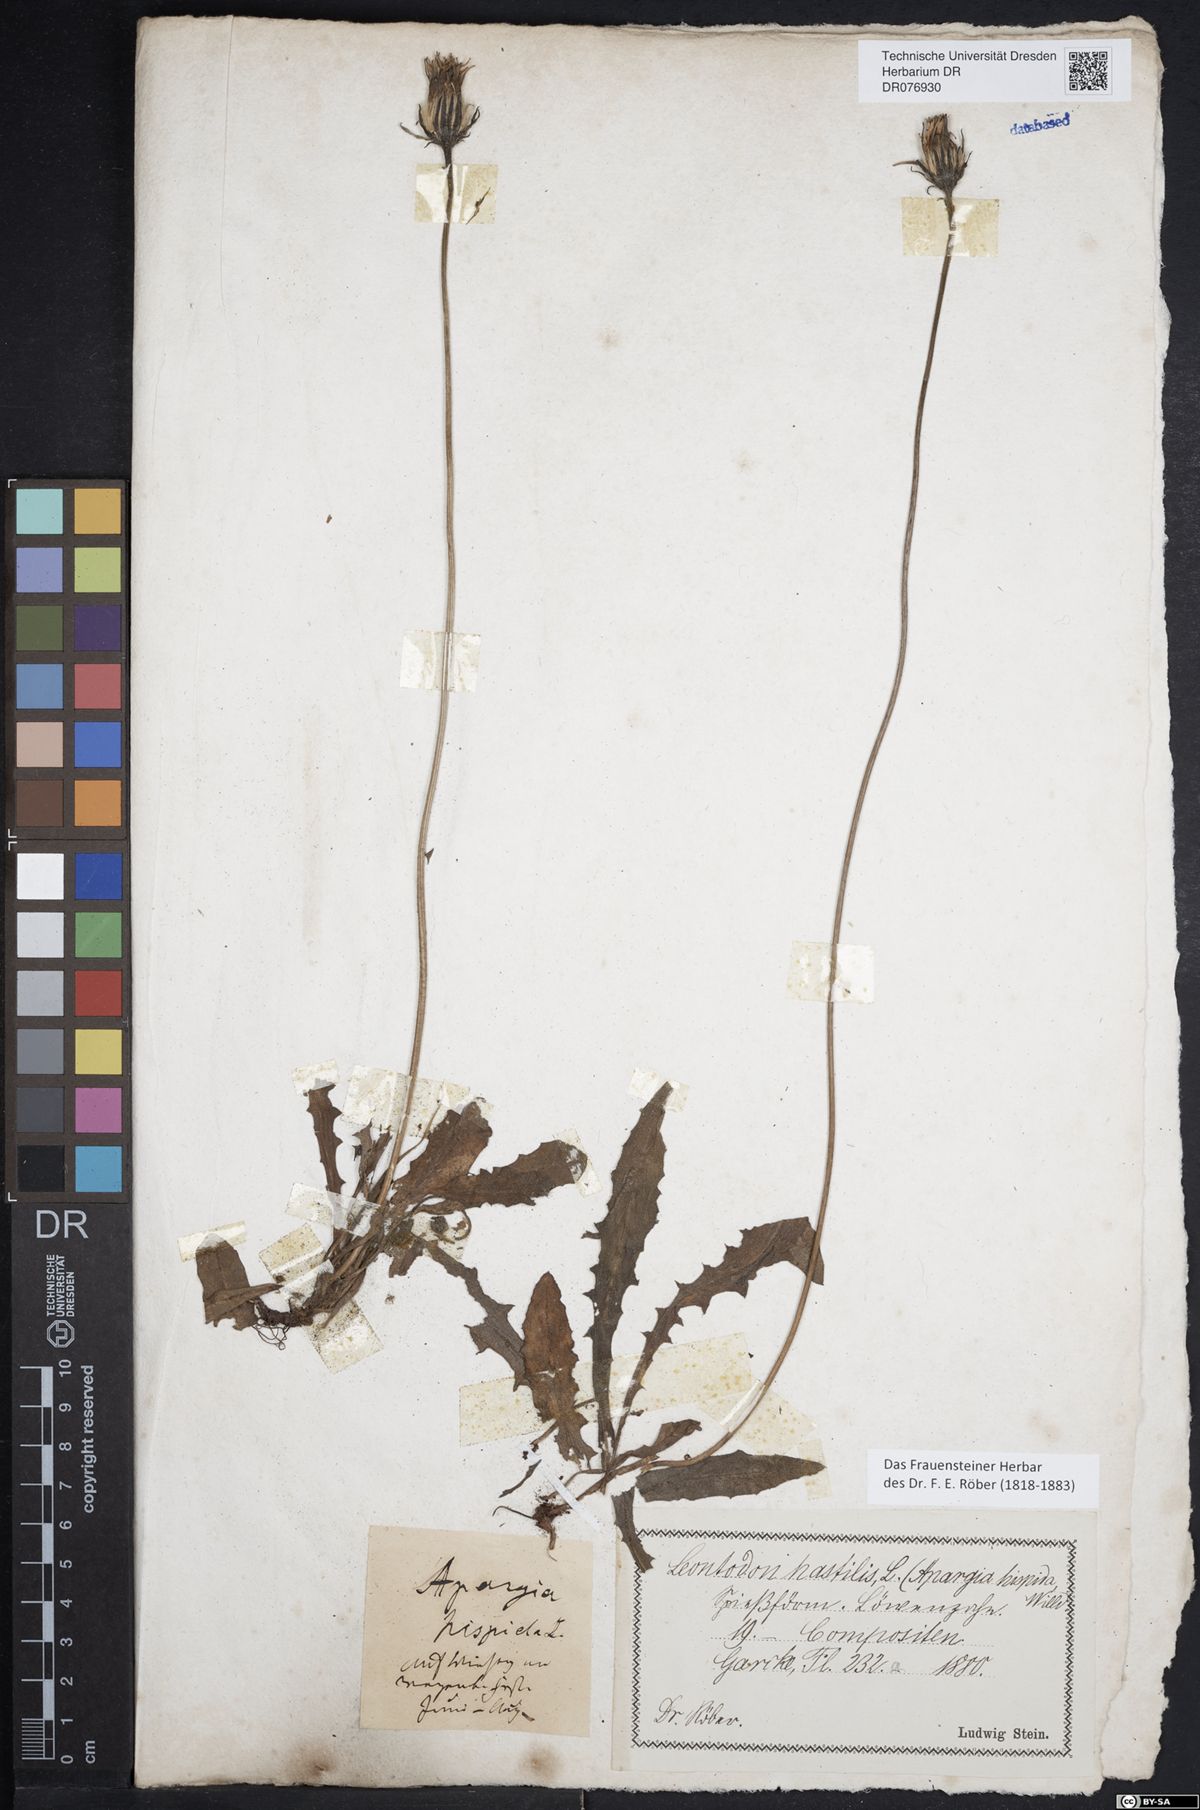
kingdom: Plantae
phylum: Tracheophyta
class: Magnoliopsida
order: Asterales
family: Asteraceae
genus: Leontodon
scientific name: Leontodon hispidus
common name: Rough hawkbit
